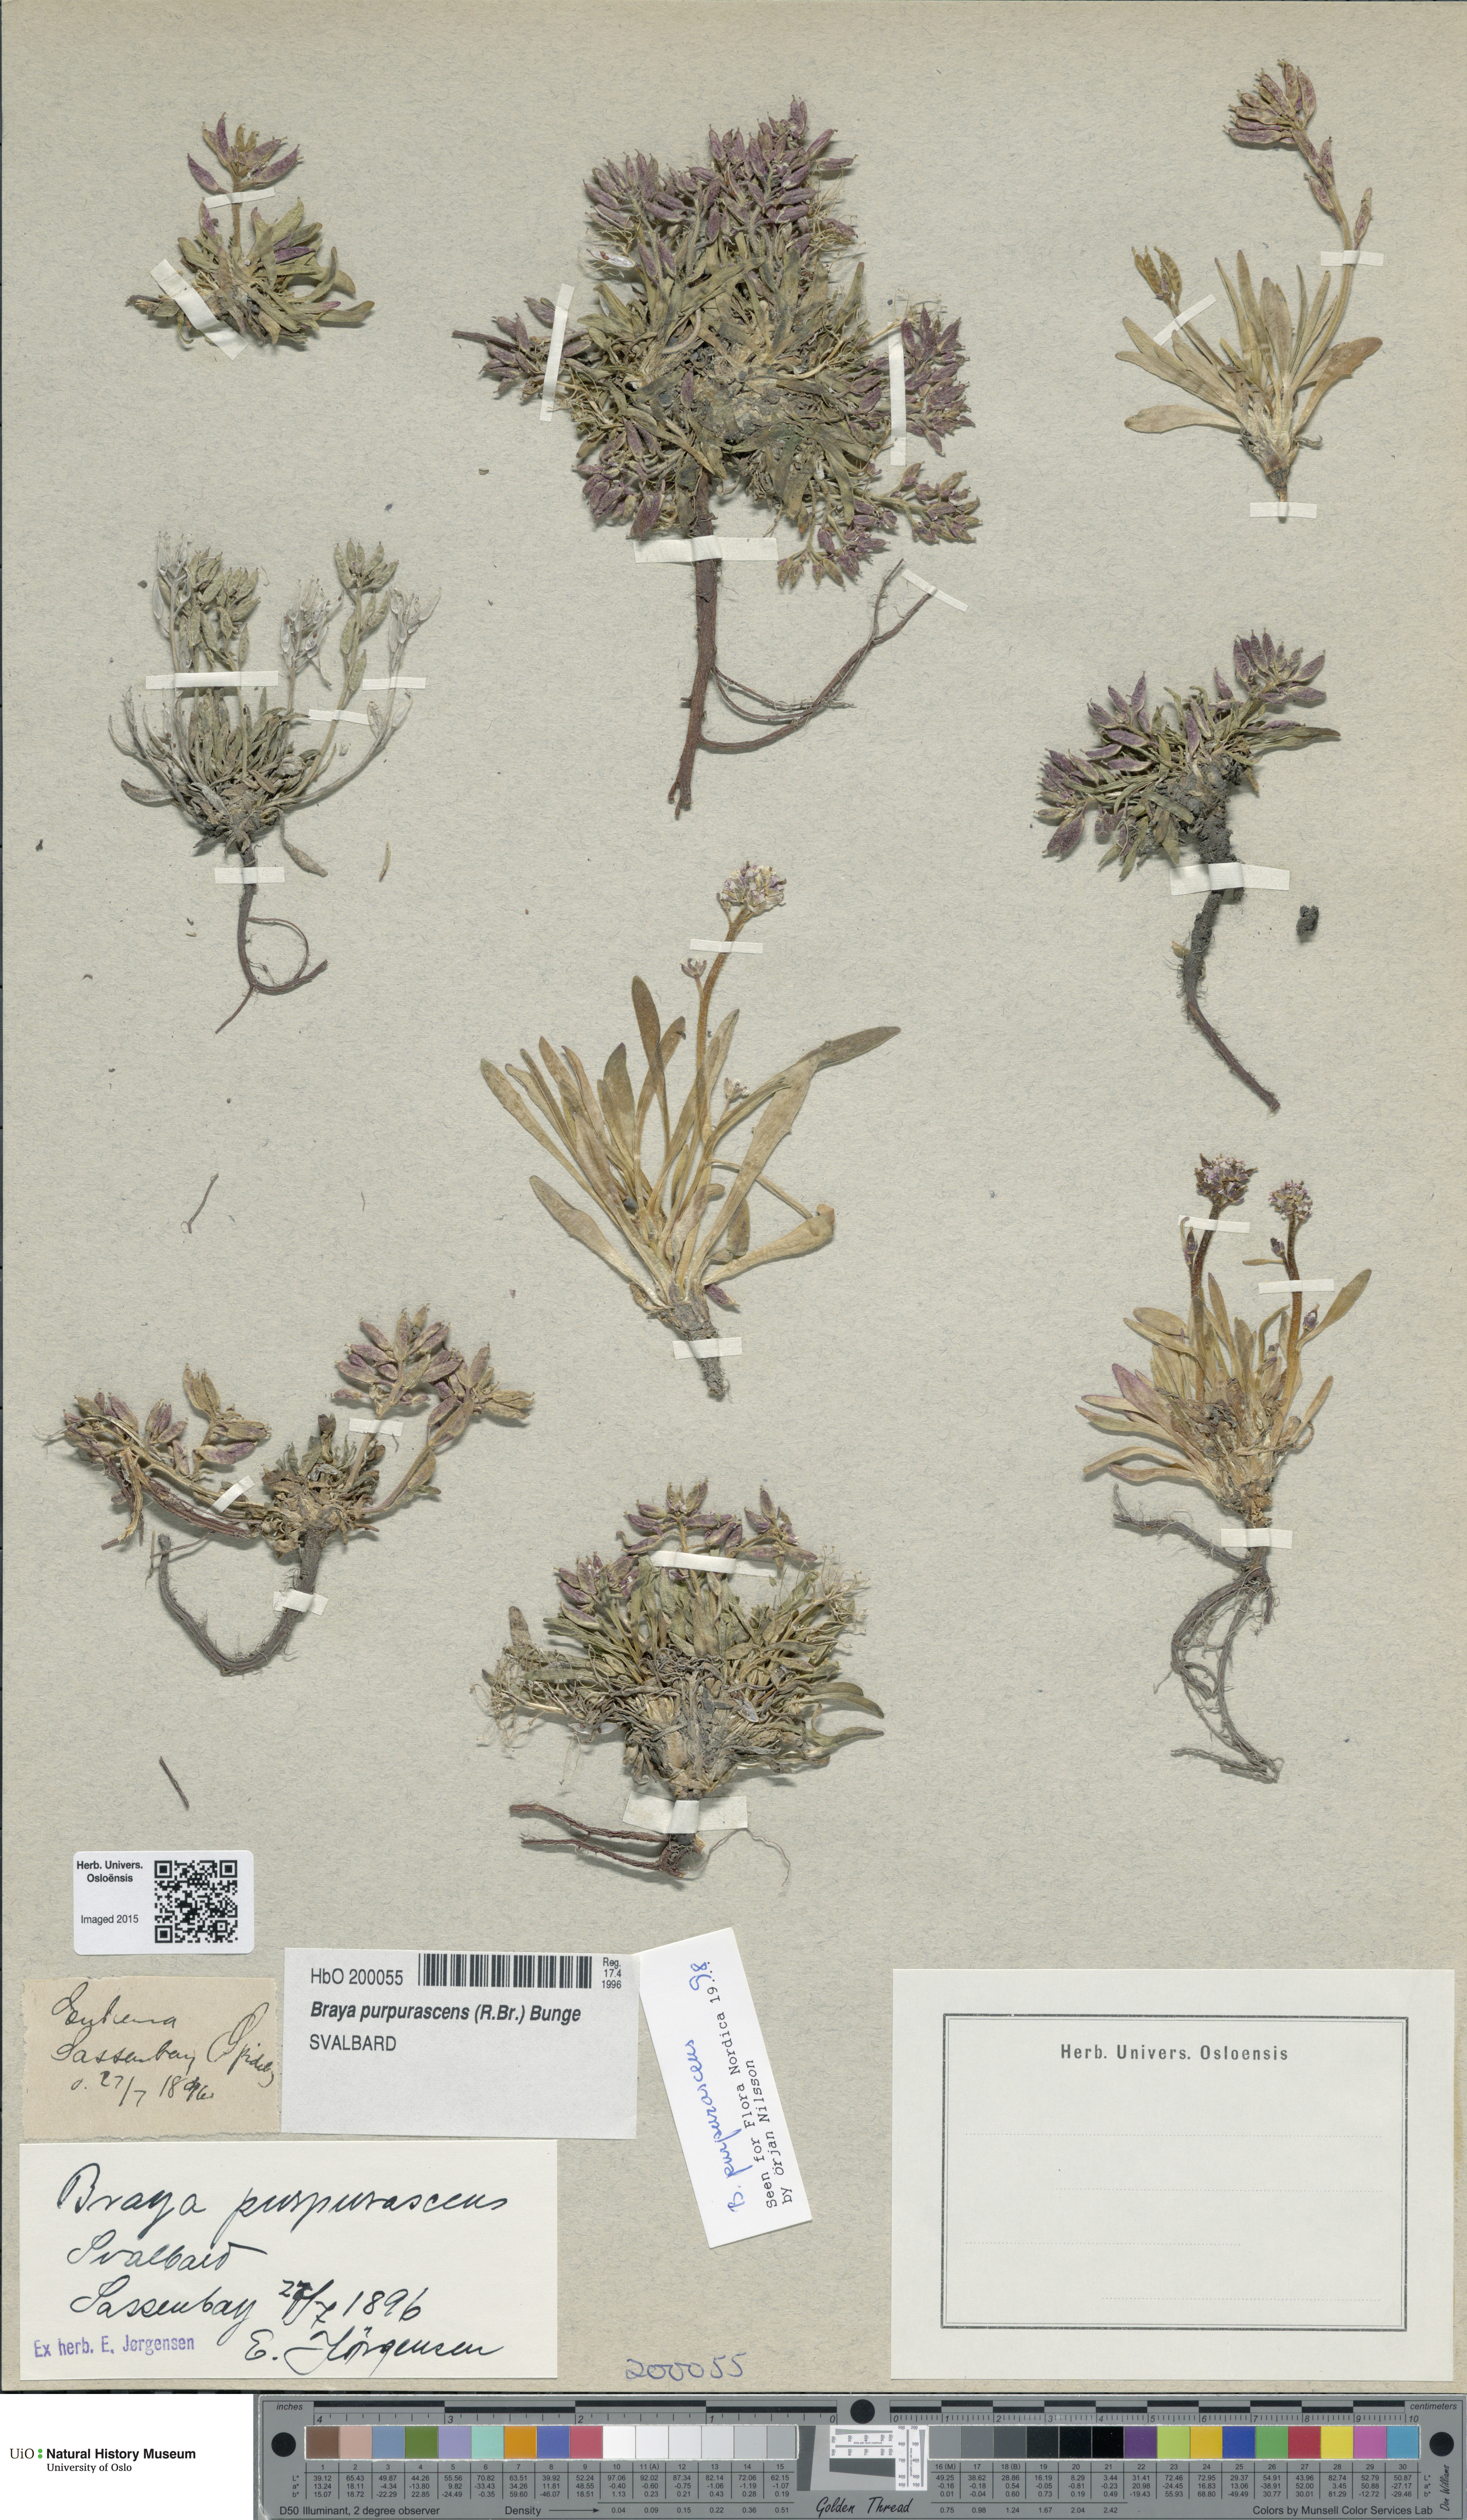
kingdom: Plantae
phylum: Tracheophyta
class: Magnoliopsida
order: Brassicales
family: Brassicaceae
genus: Braya
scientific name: Braya purpurascens
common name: Alpine braya
